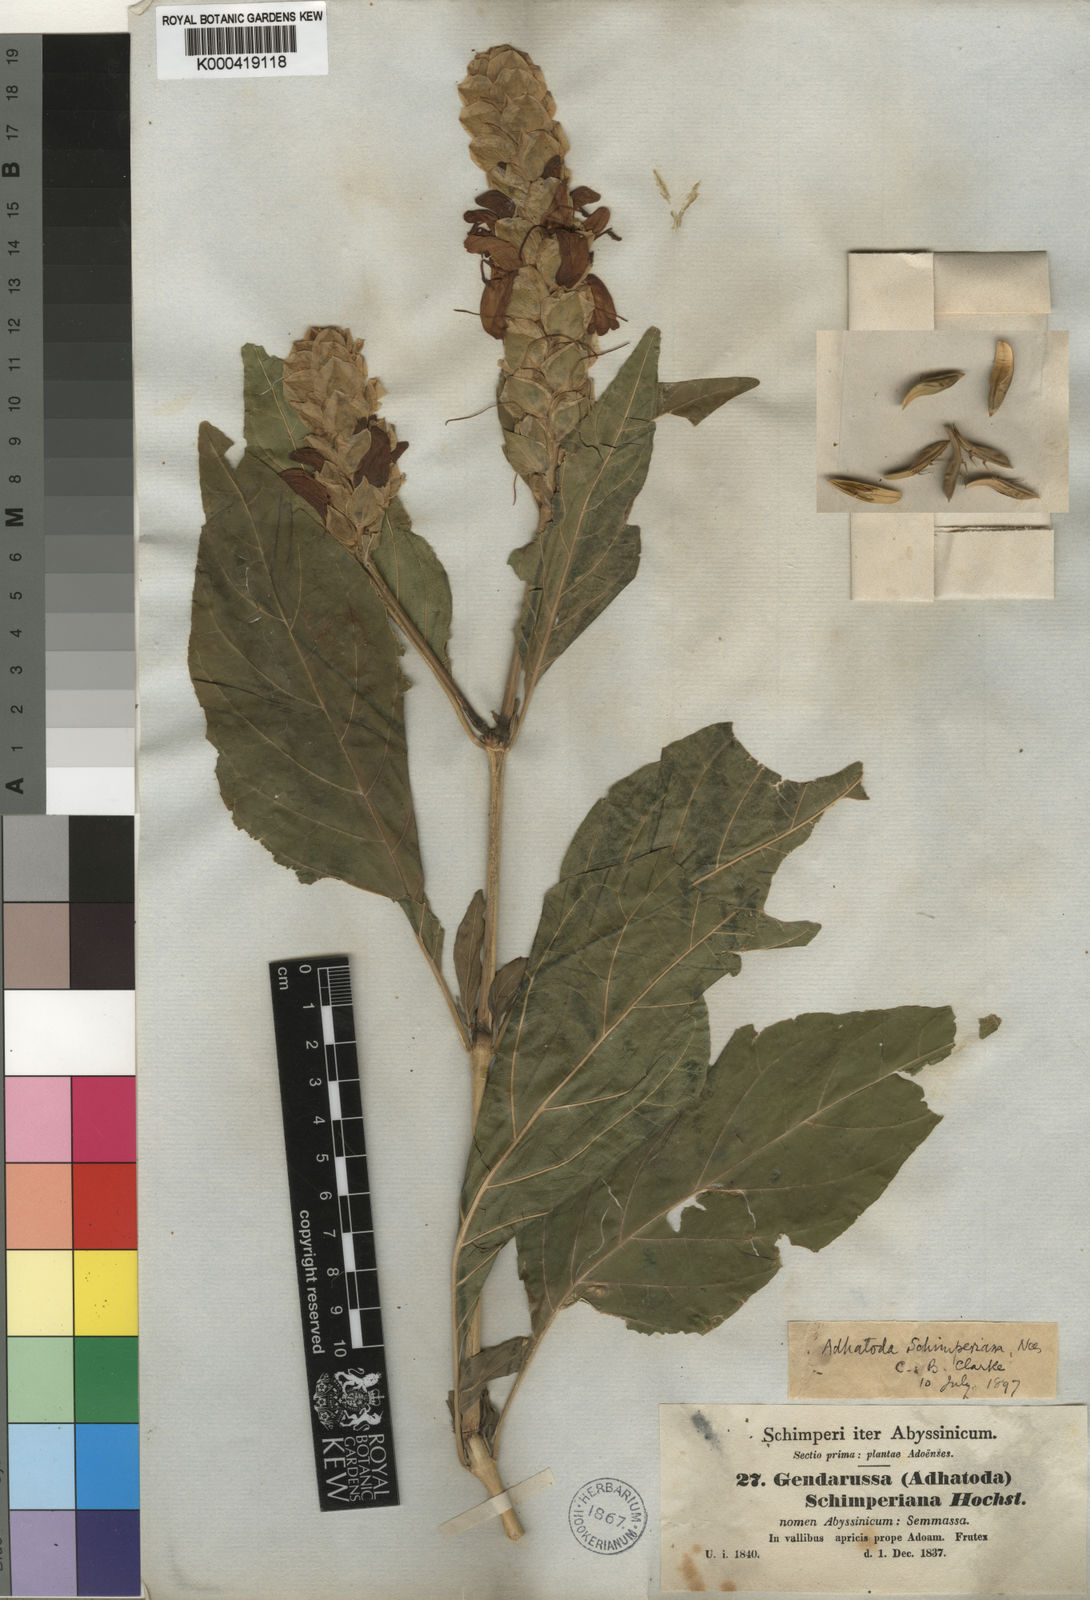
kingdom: Plantae
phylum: Tracheophyta
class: Magnoliopsida
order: Lamiales
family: Acanthaceae
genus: Justicia
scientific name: Justicia schimperiana
